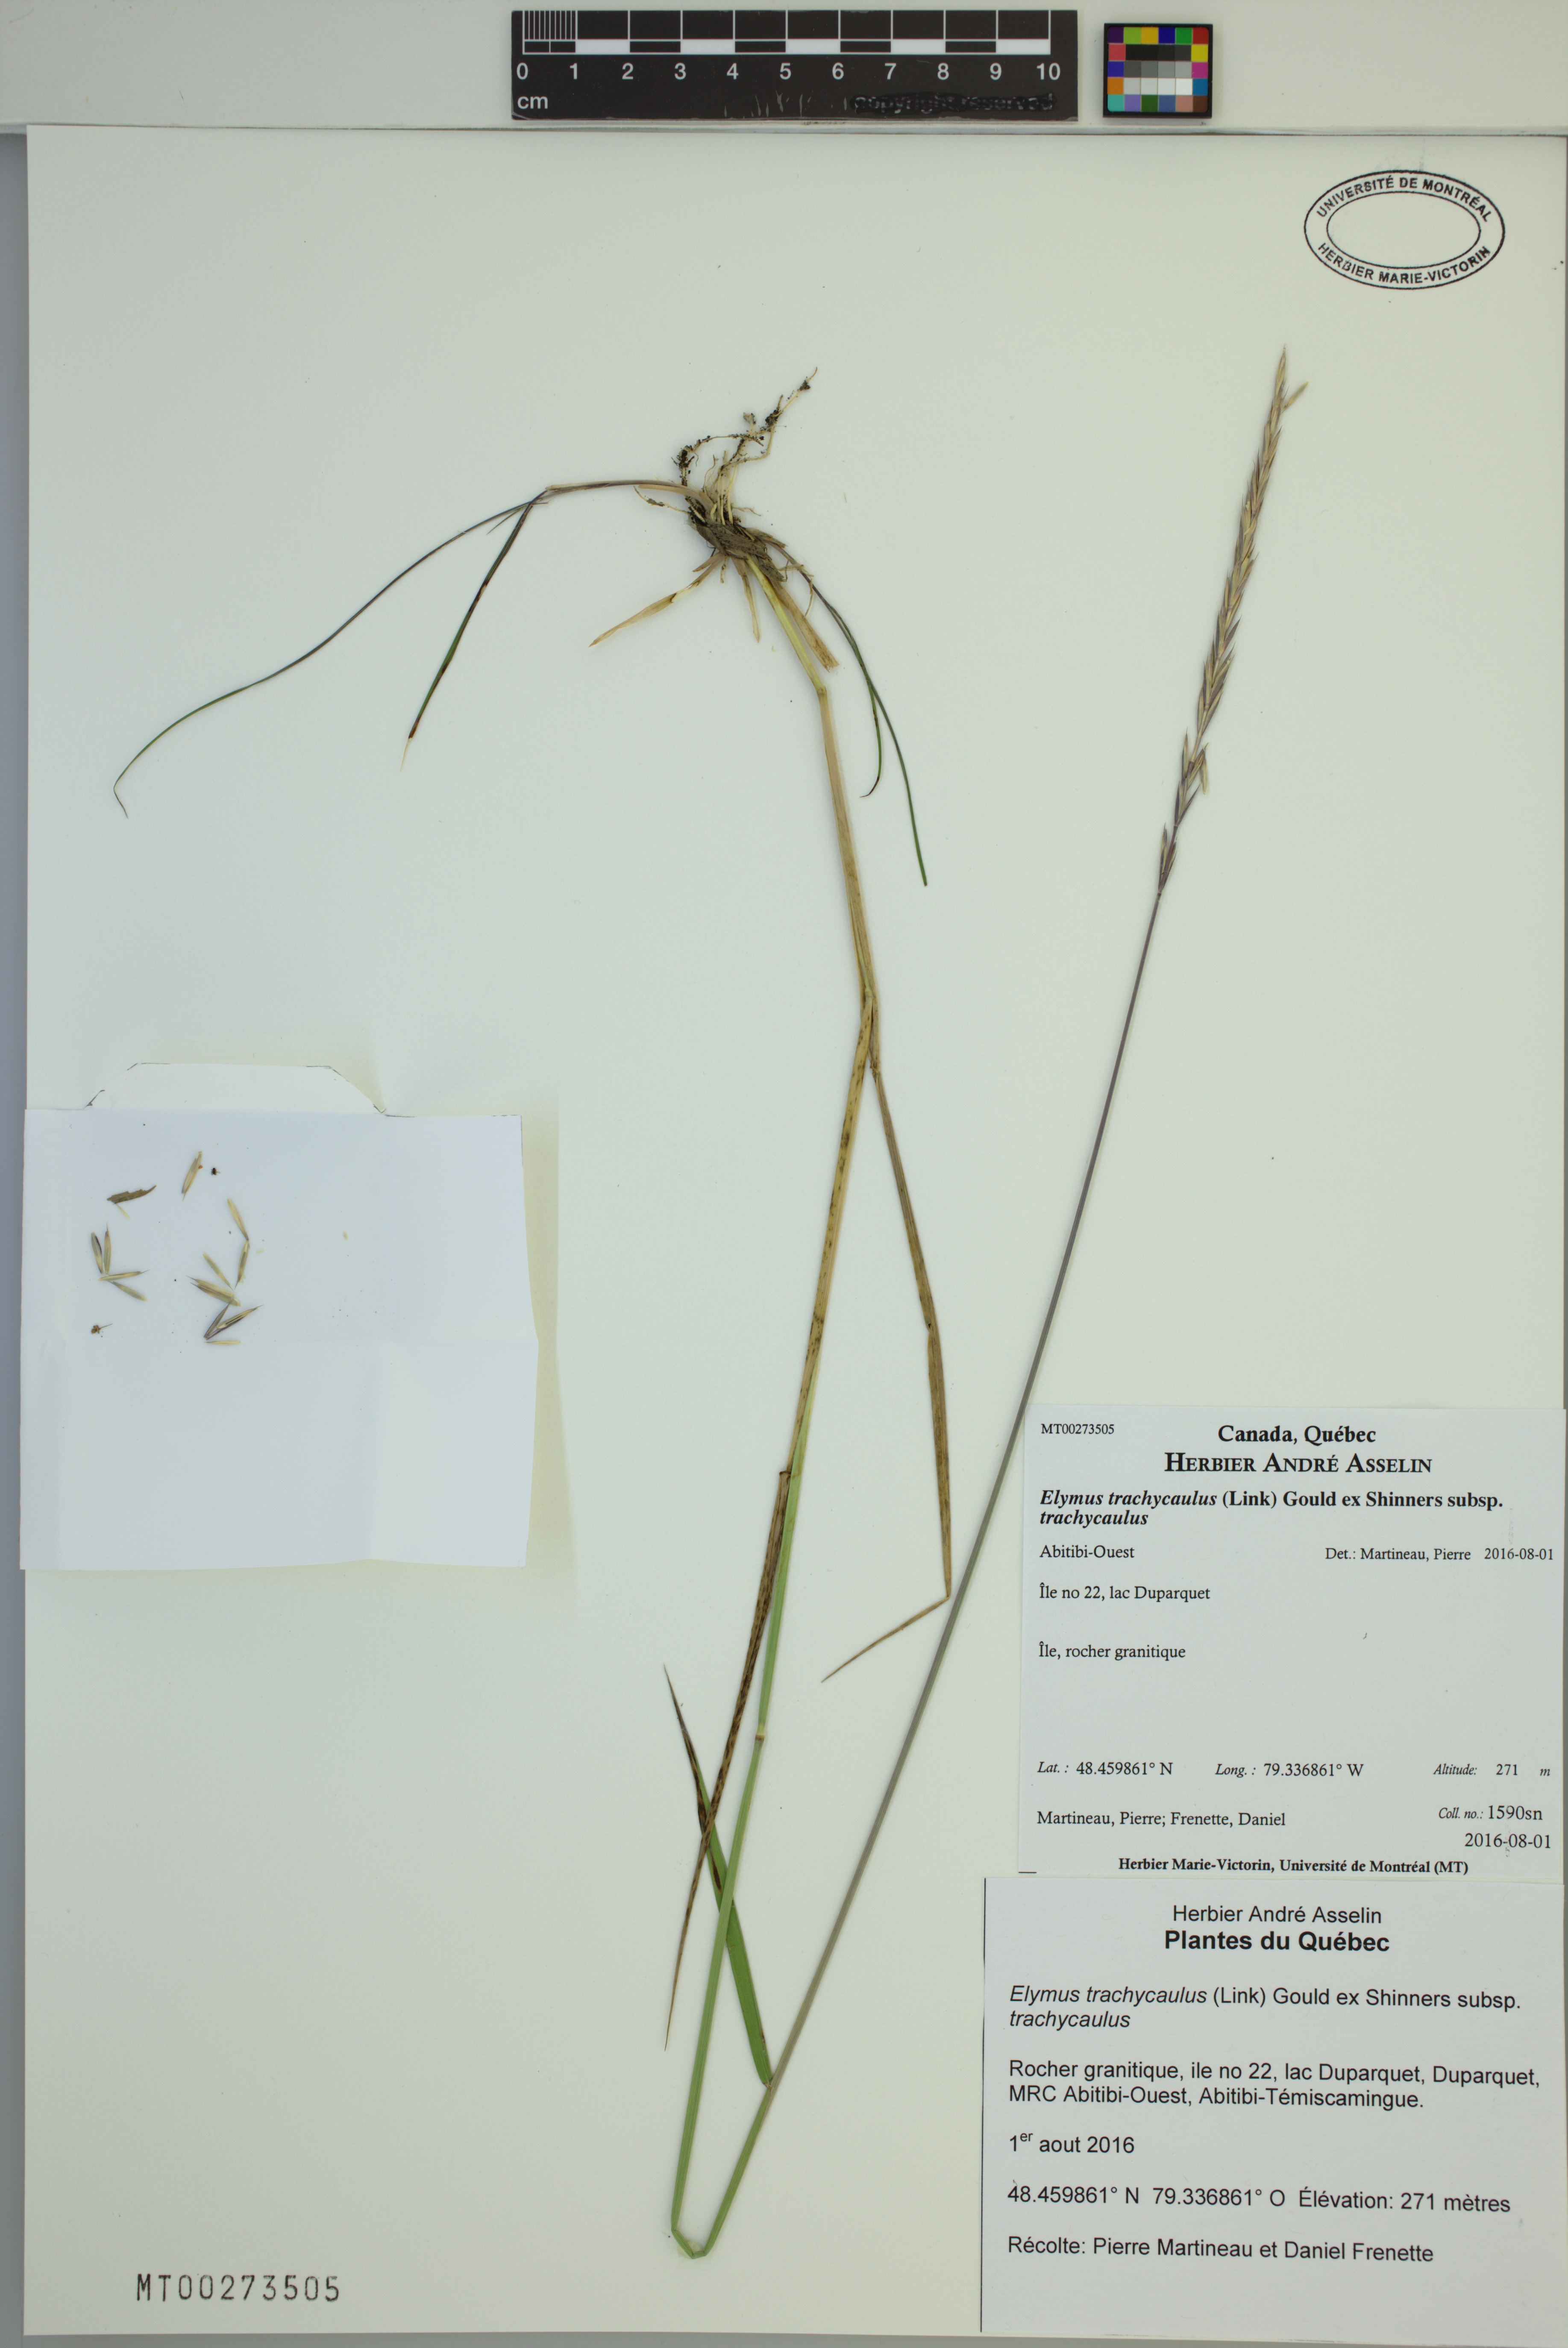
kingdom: Plantae
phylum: Tracheophyta
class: Liliopsida
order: Poales
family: Poaceae
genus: Elymus
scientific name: Elymus violaceus
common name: Arctic wheatgrass
